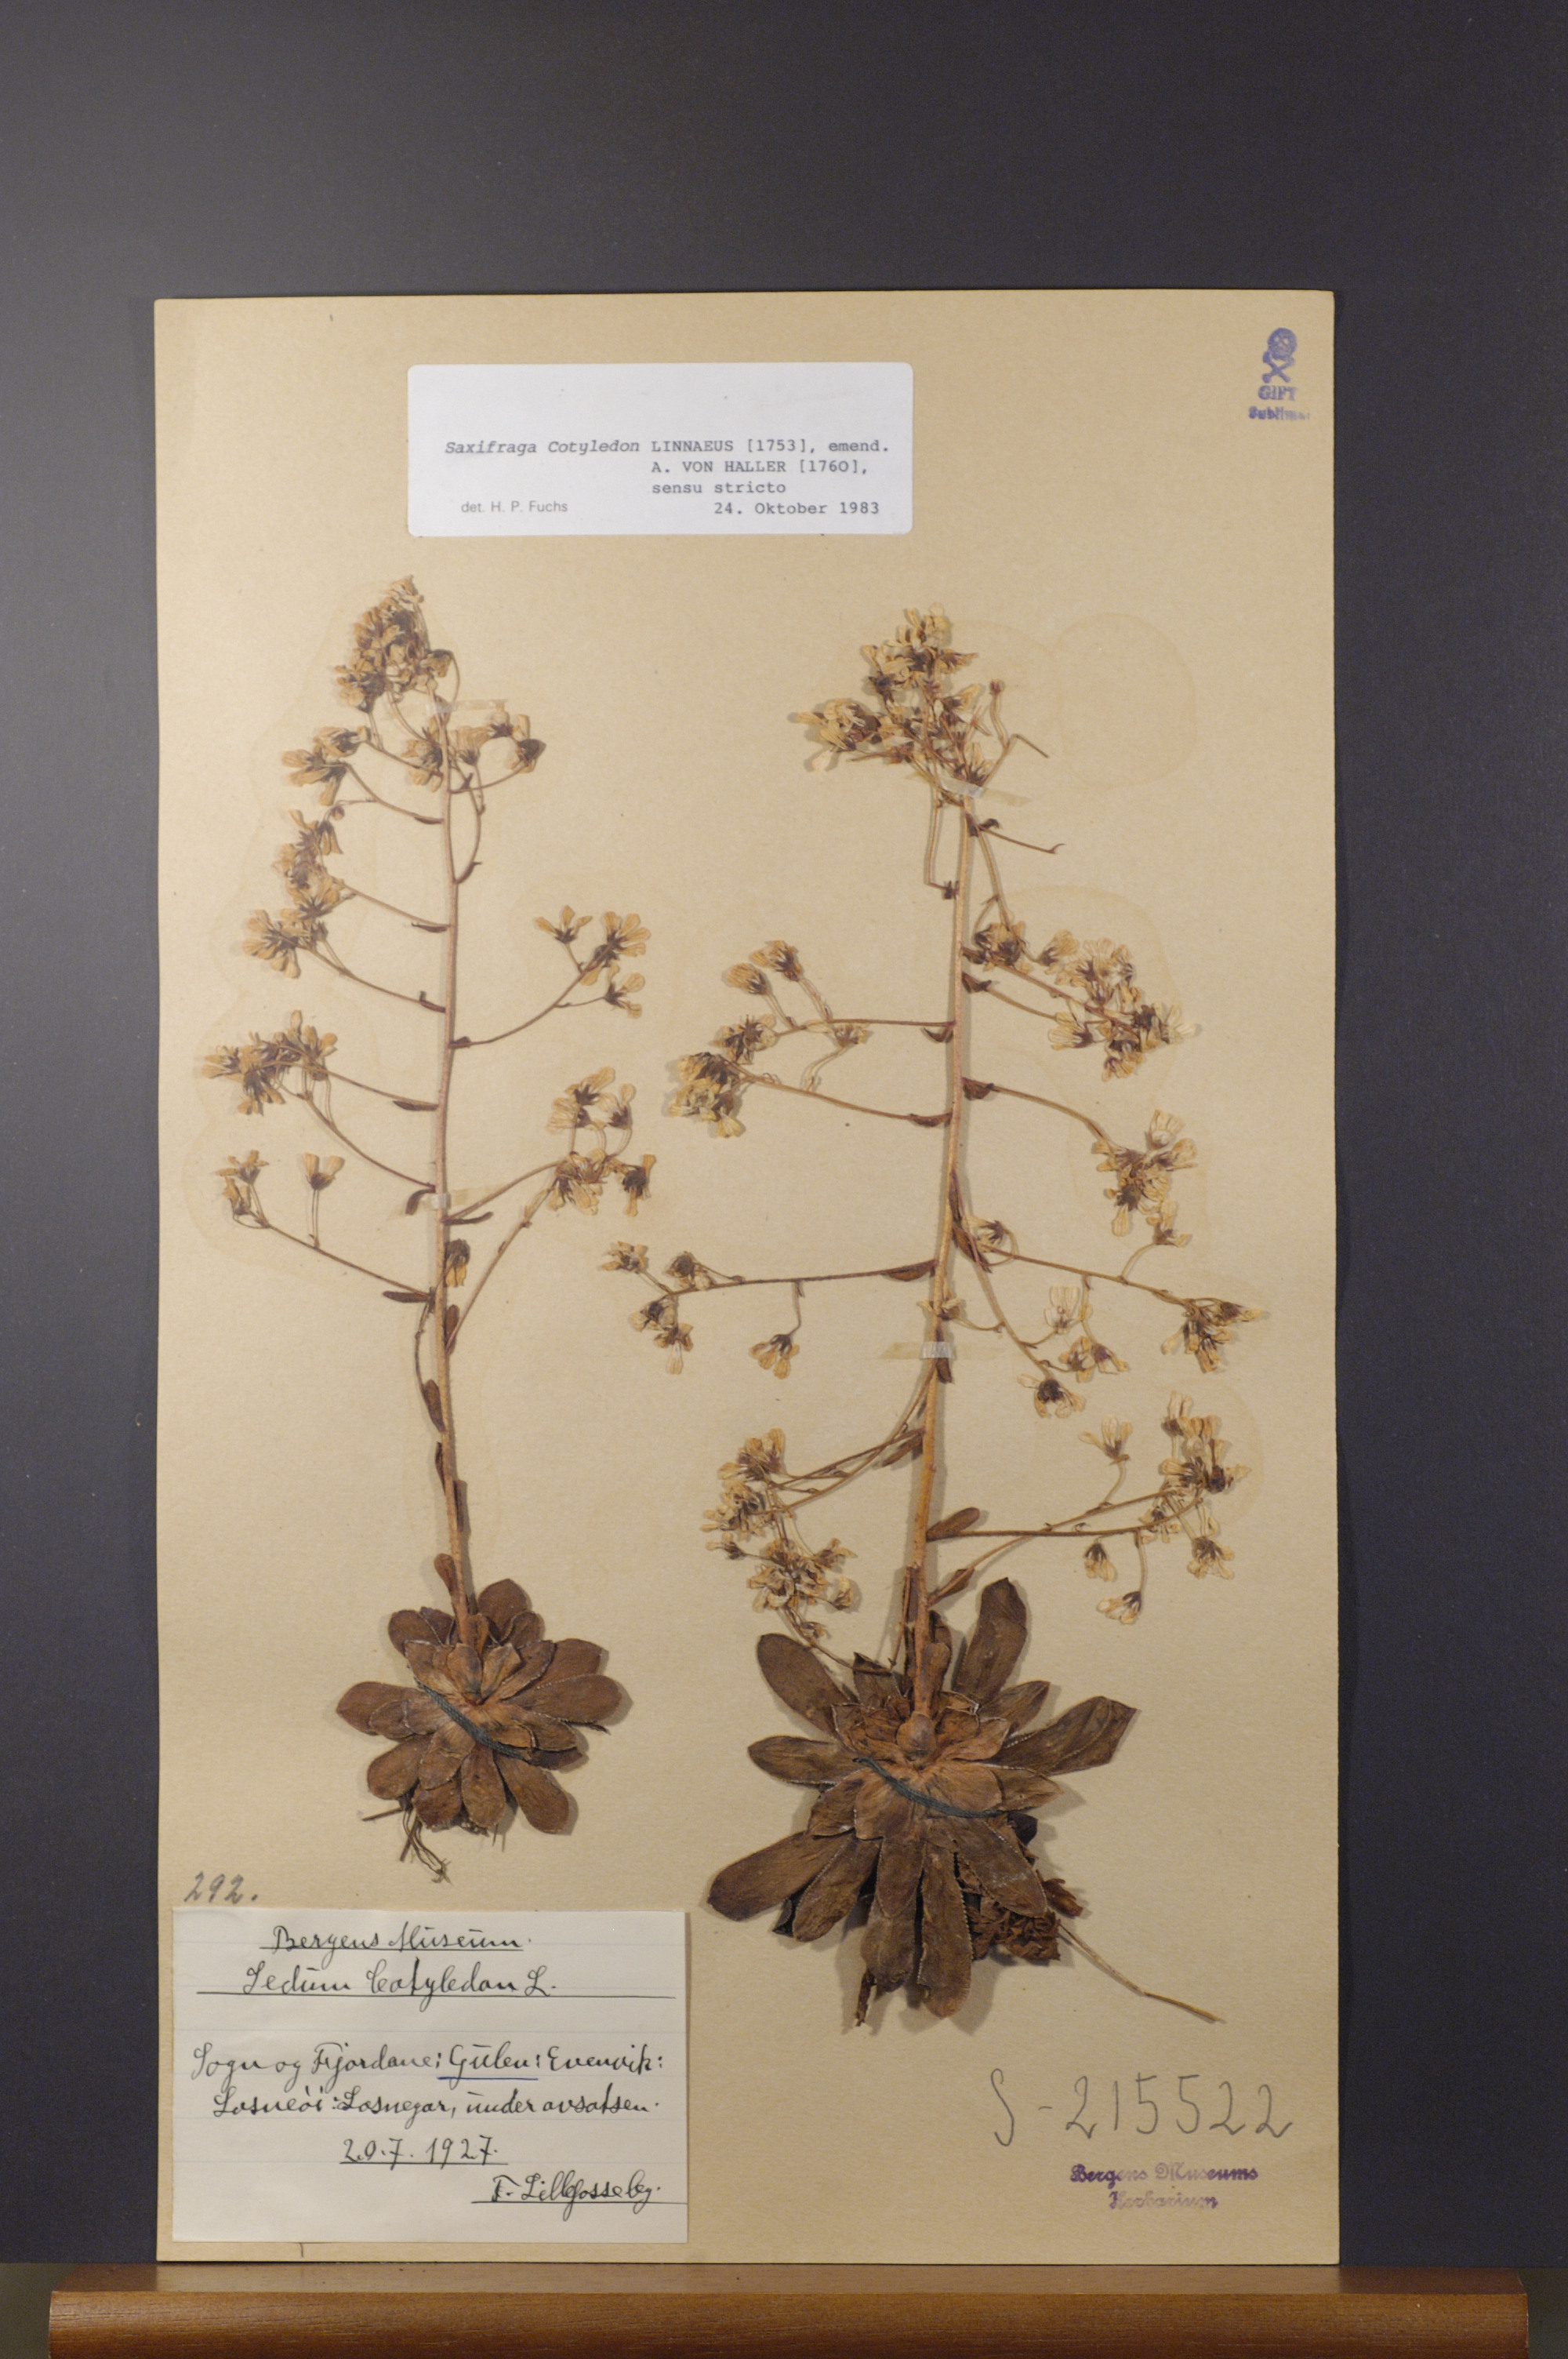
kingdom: Plantae
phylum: Tracheophyta
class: Magnoliopsida
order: Saxifragales
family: Saxifragaceae
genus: Saxifraga
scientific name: Saxifraga cotyledon
